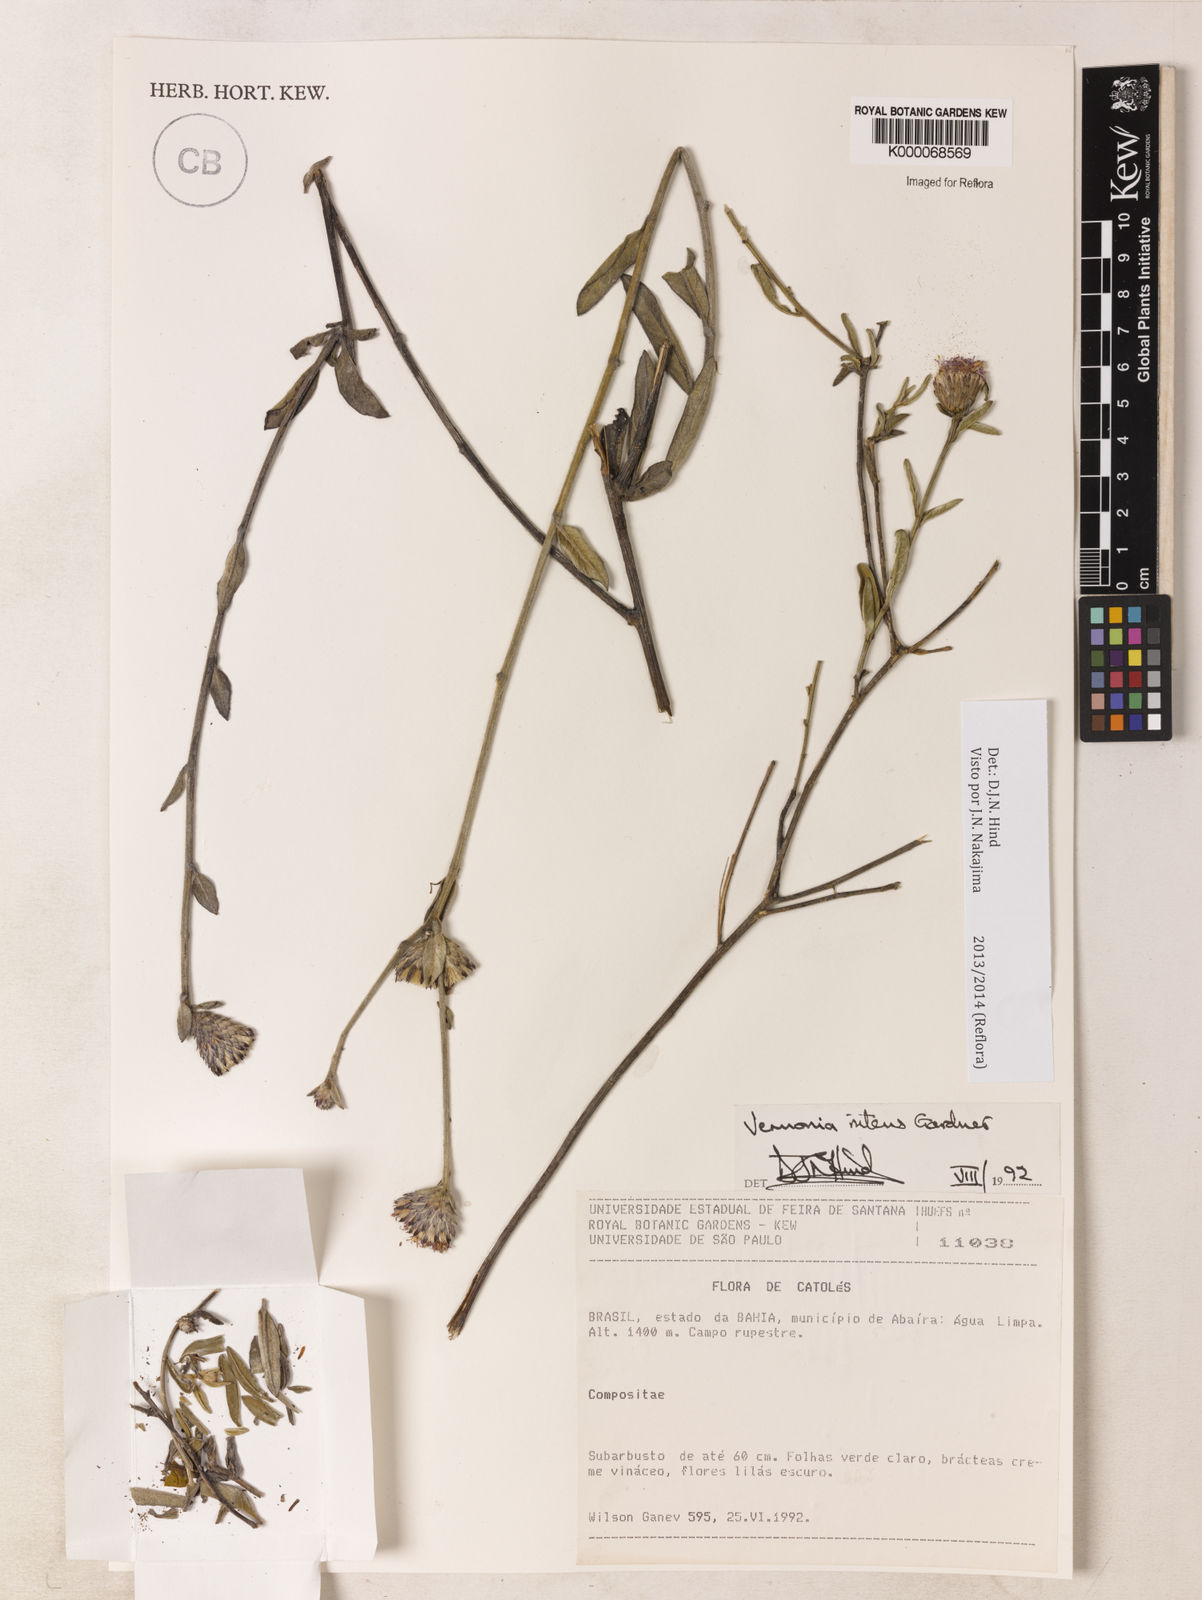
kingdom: Plantae
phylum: Tracheophyta
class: Magnoliopsida
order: Asterales
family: Asteraceae
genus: Lepidaploa
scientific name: Lepidaploa nitens
